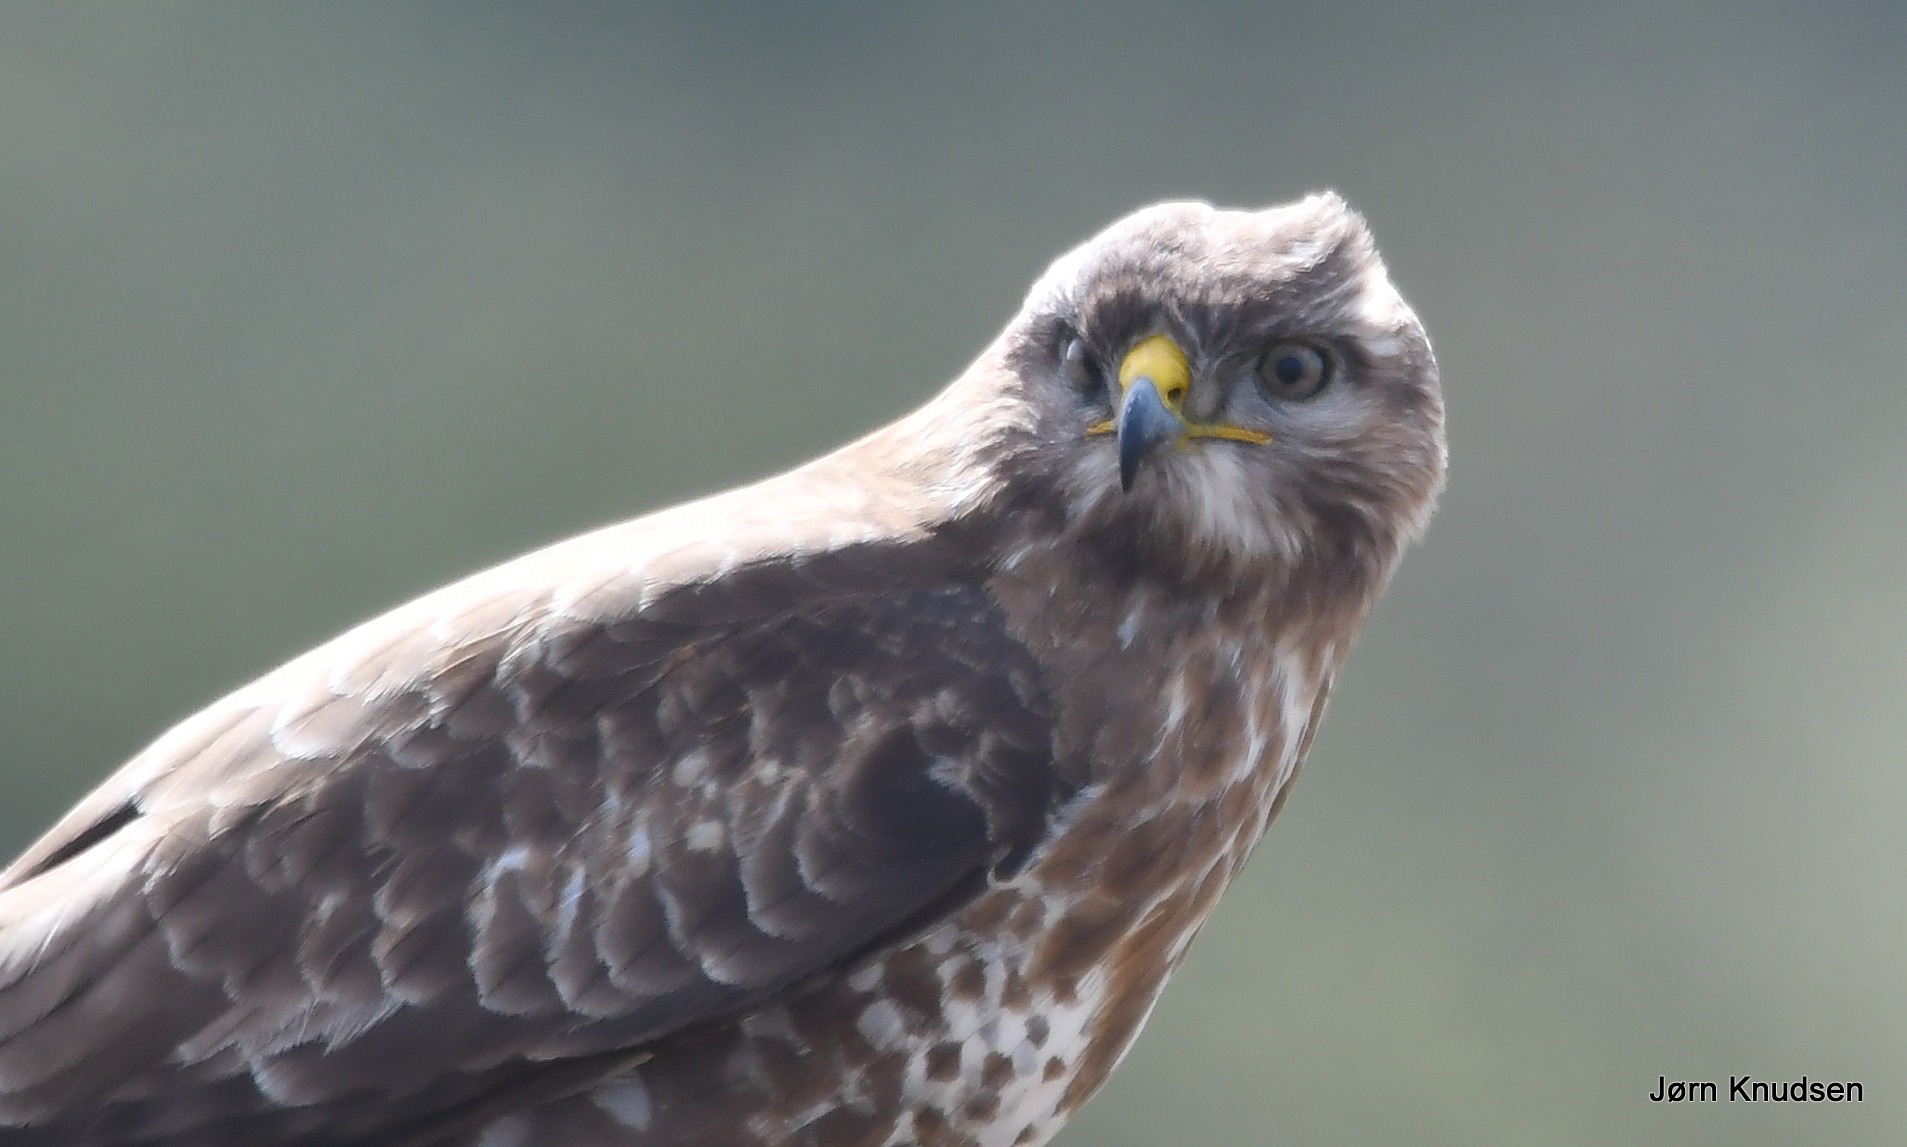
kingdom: Animalia
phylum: Chordata
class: Aves
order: Accipitriformes
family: Accipitridae
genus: Buteo
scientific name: Buteo buteo
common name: Musvåge
